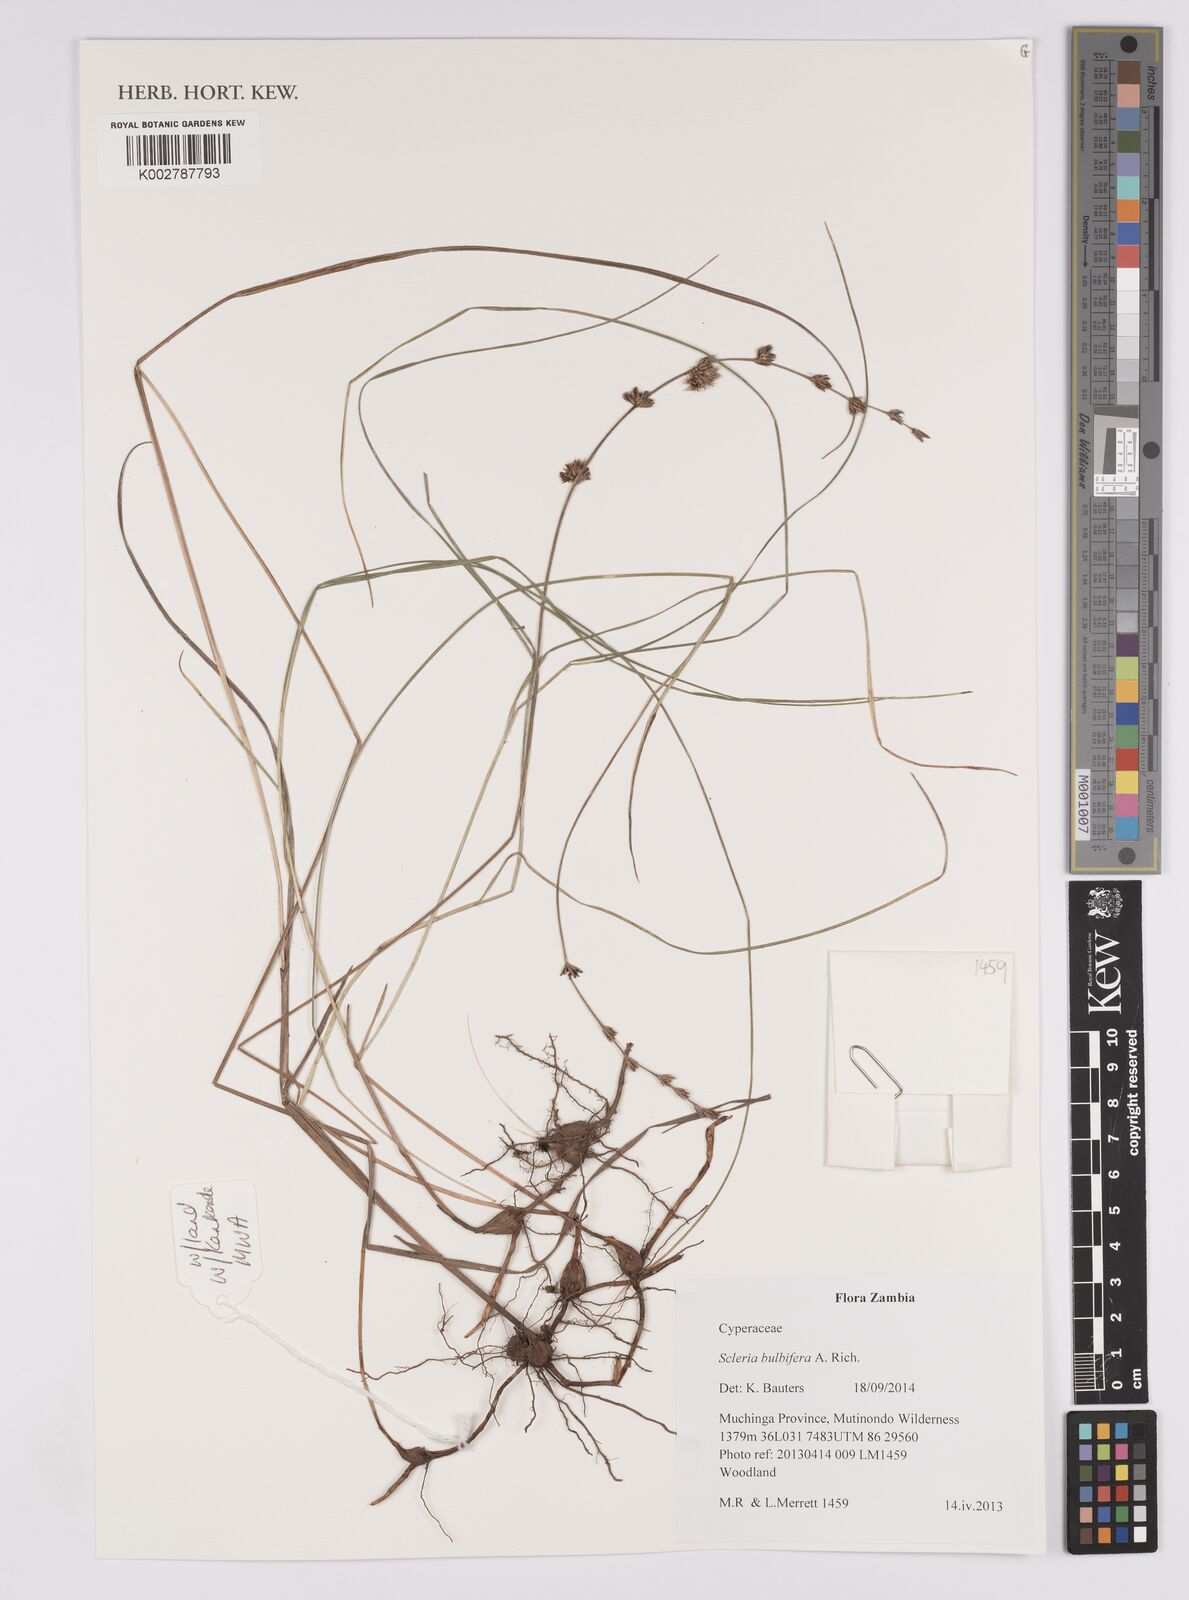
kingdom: Plantae
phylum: Tracheophyta
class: Liliopsida
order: Poales
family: Cyperaceae
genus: Scleria
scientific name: Scleria bulbifera
